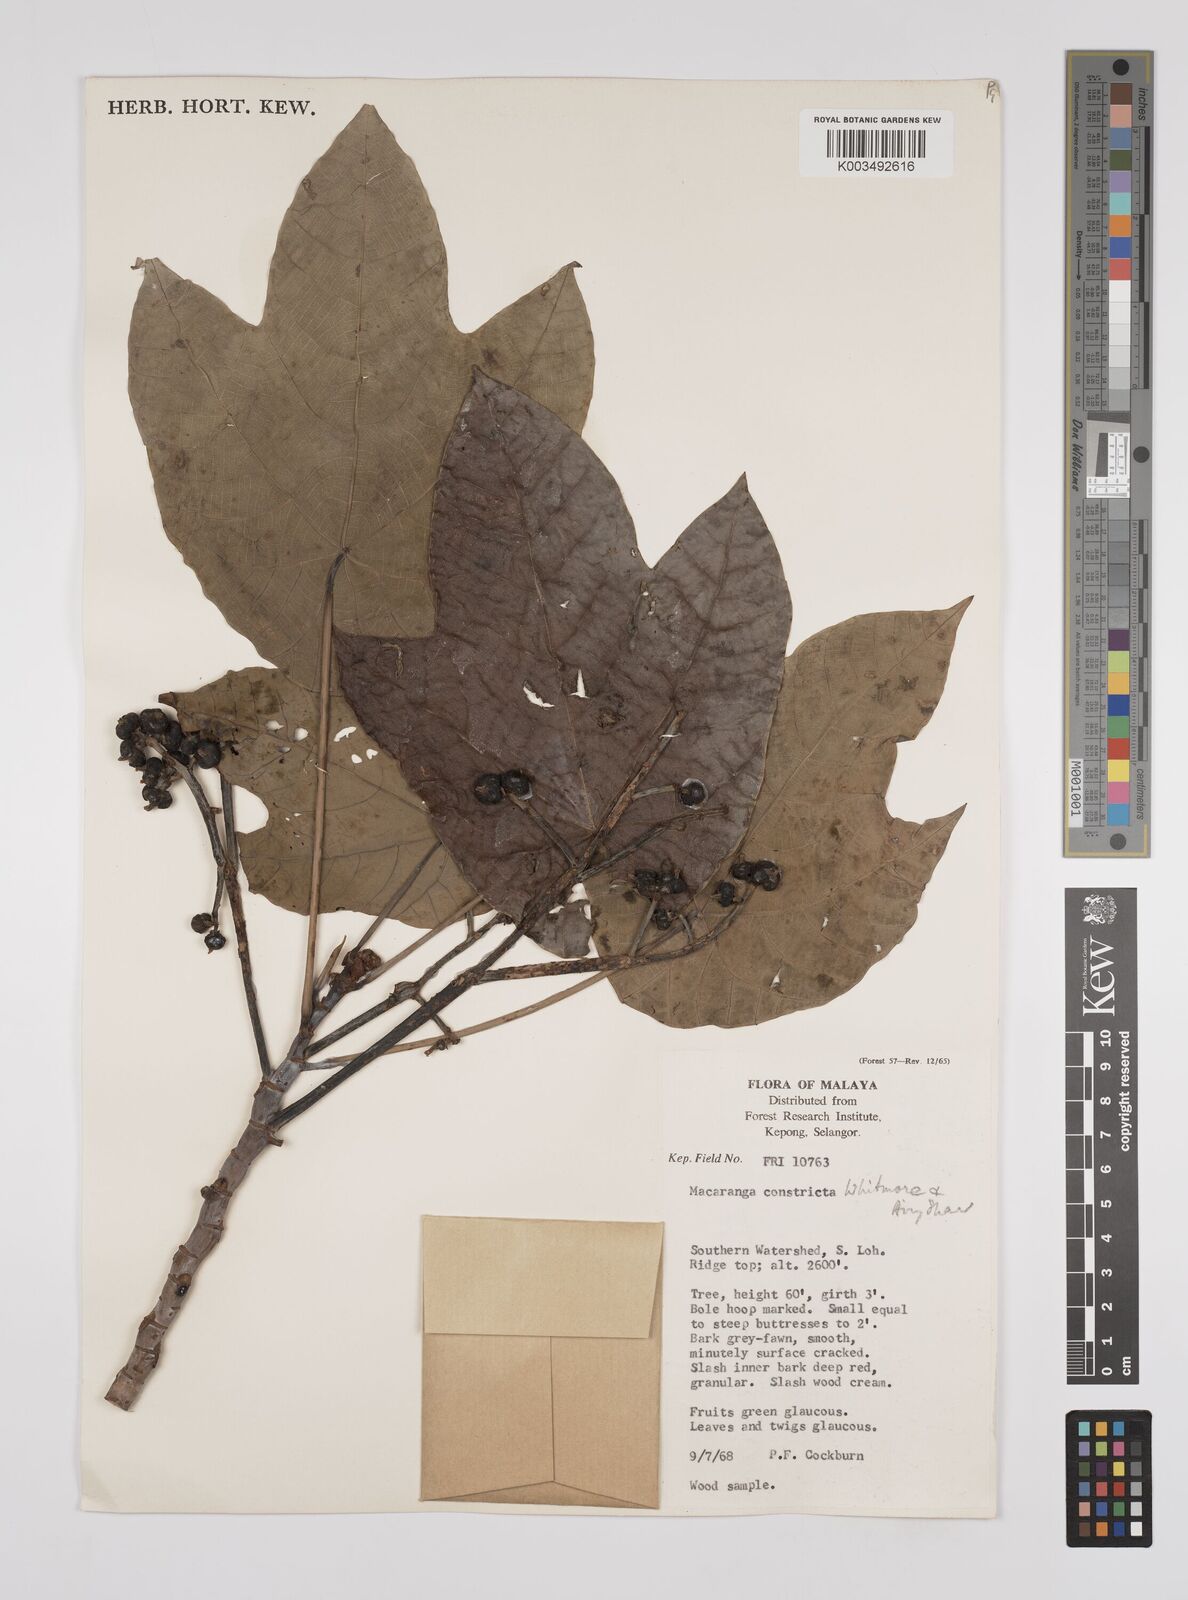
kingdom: Plantae
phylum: Tracheophyta
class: Magnoliopsida
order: Malpighiales
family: Euphorbiaceae
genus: Macaranga
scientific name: Macaranga constricta
